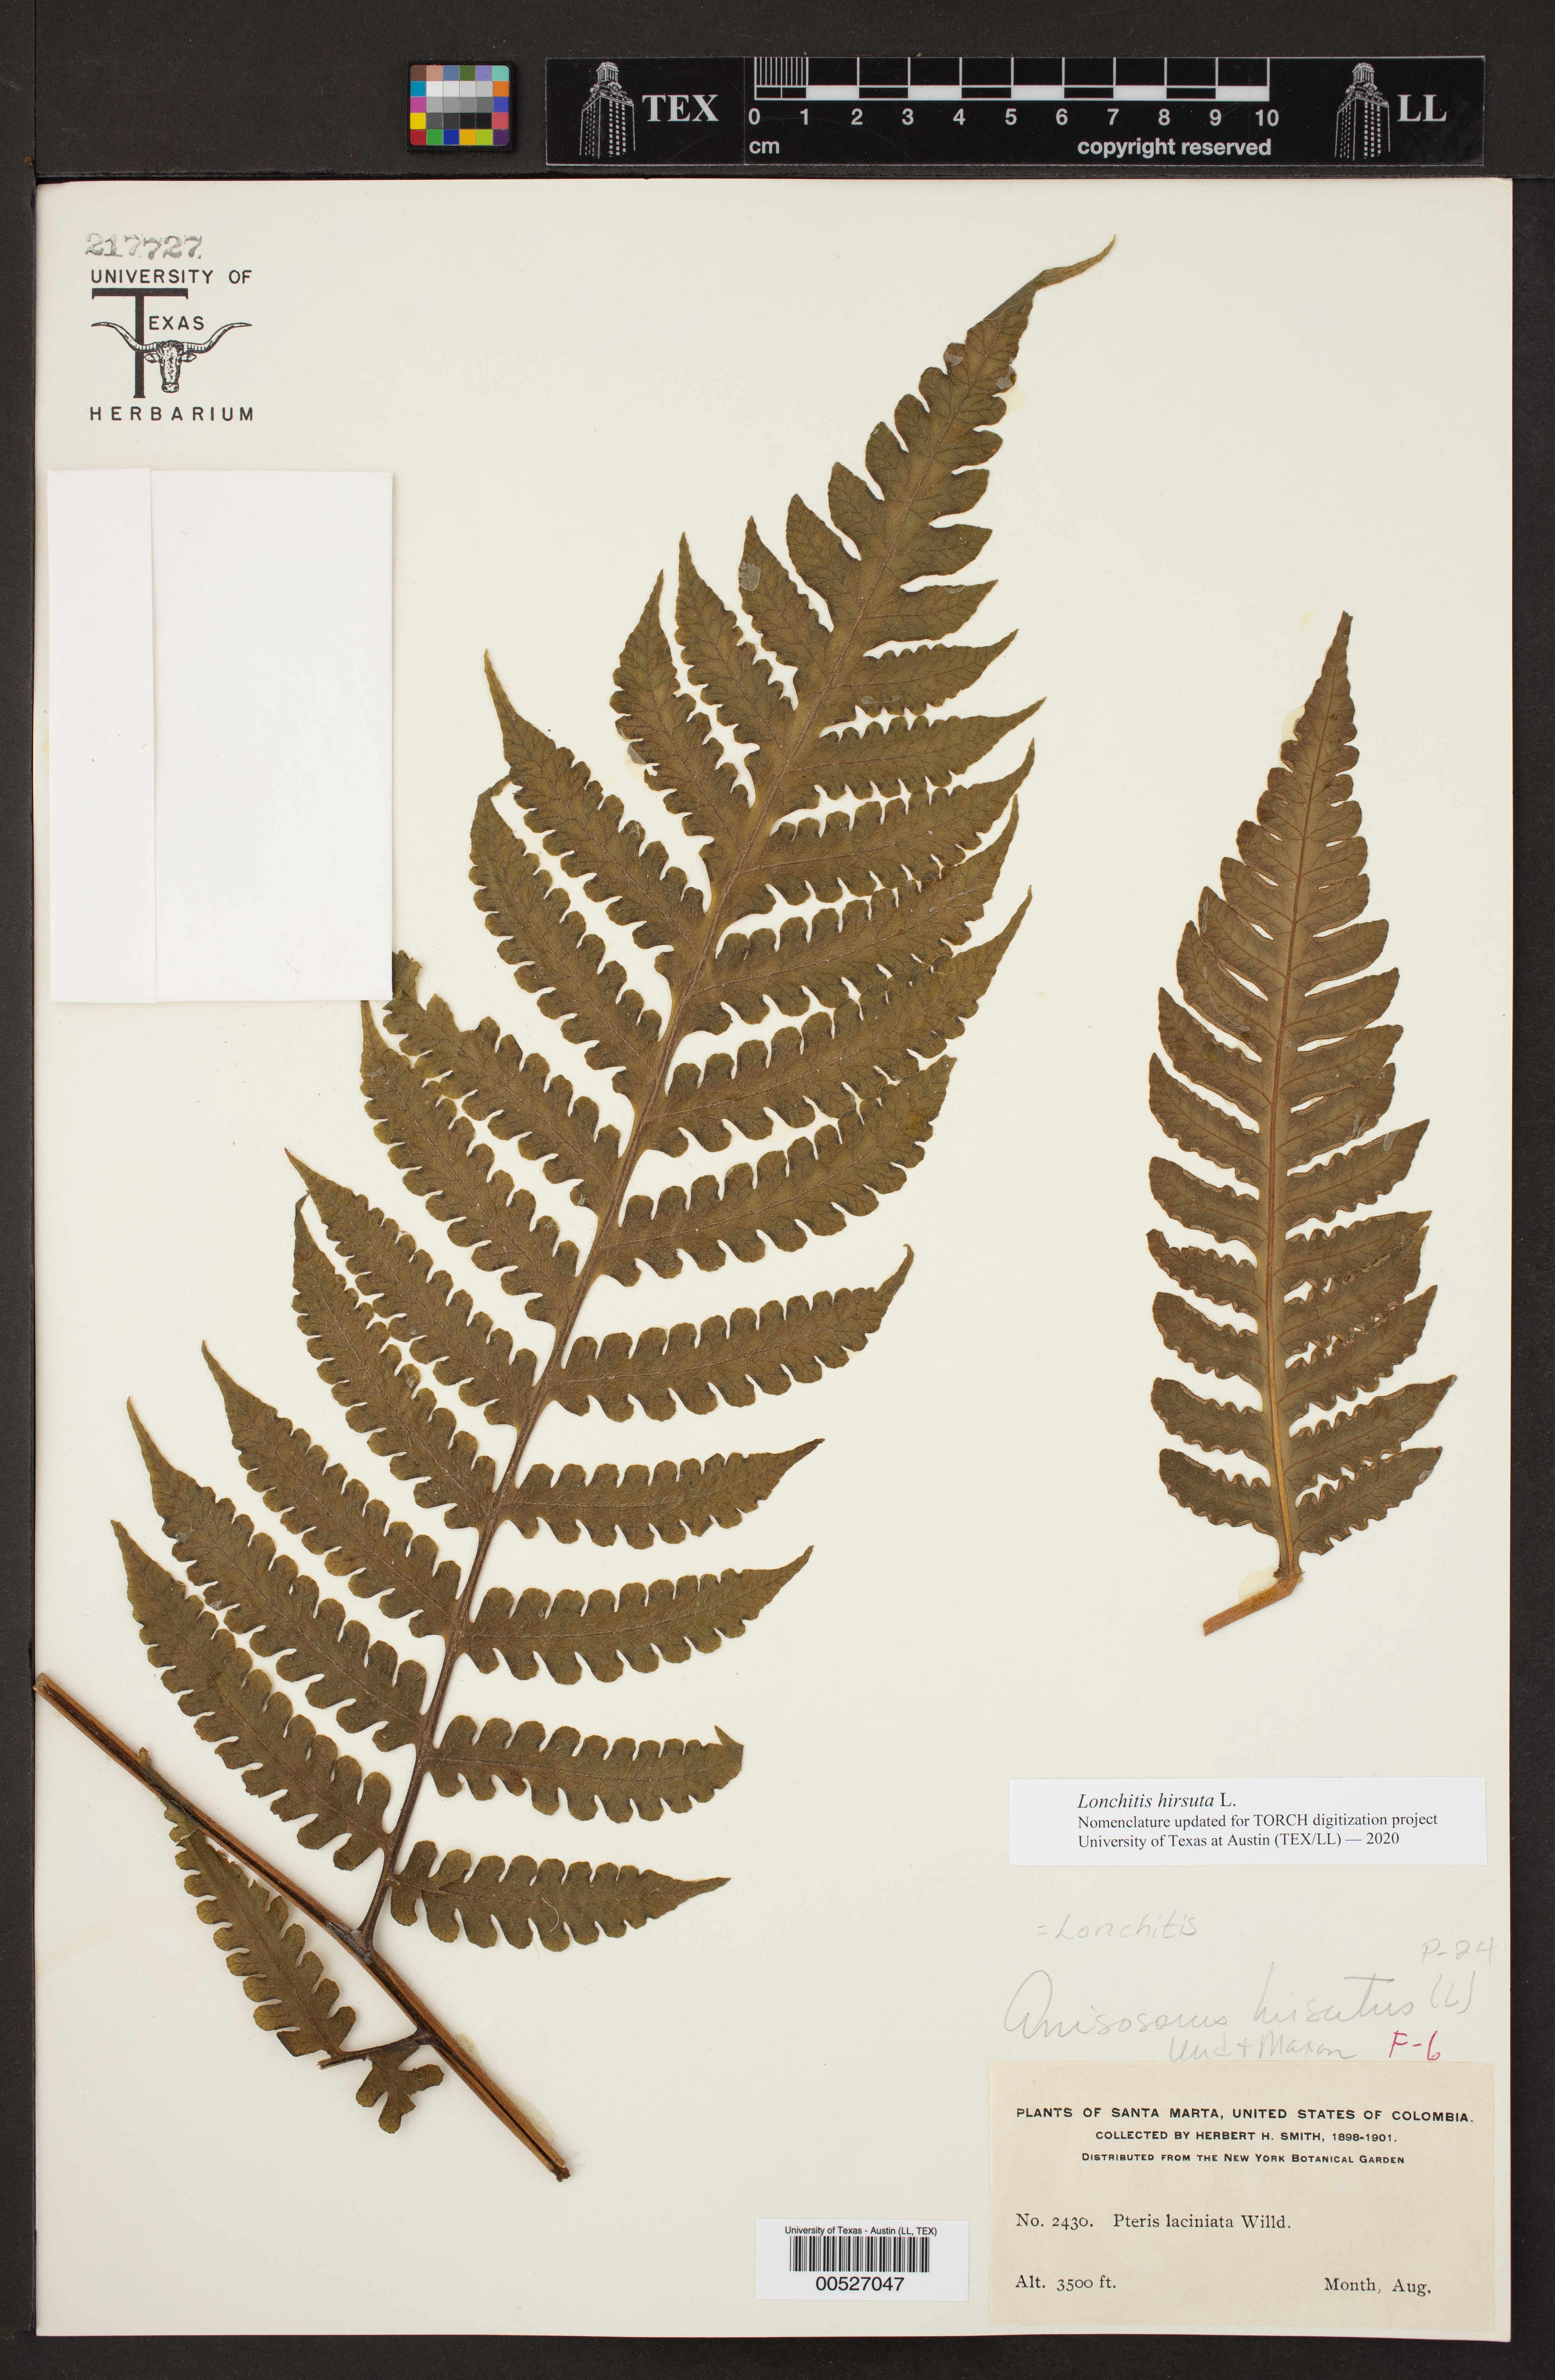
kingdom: Plantae
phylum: Tracheophyta
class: Polypodiopsida
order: Polypodiales
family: Lonchitidaceae
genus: Lonchitis
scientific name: Lonchitis hirsuta
